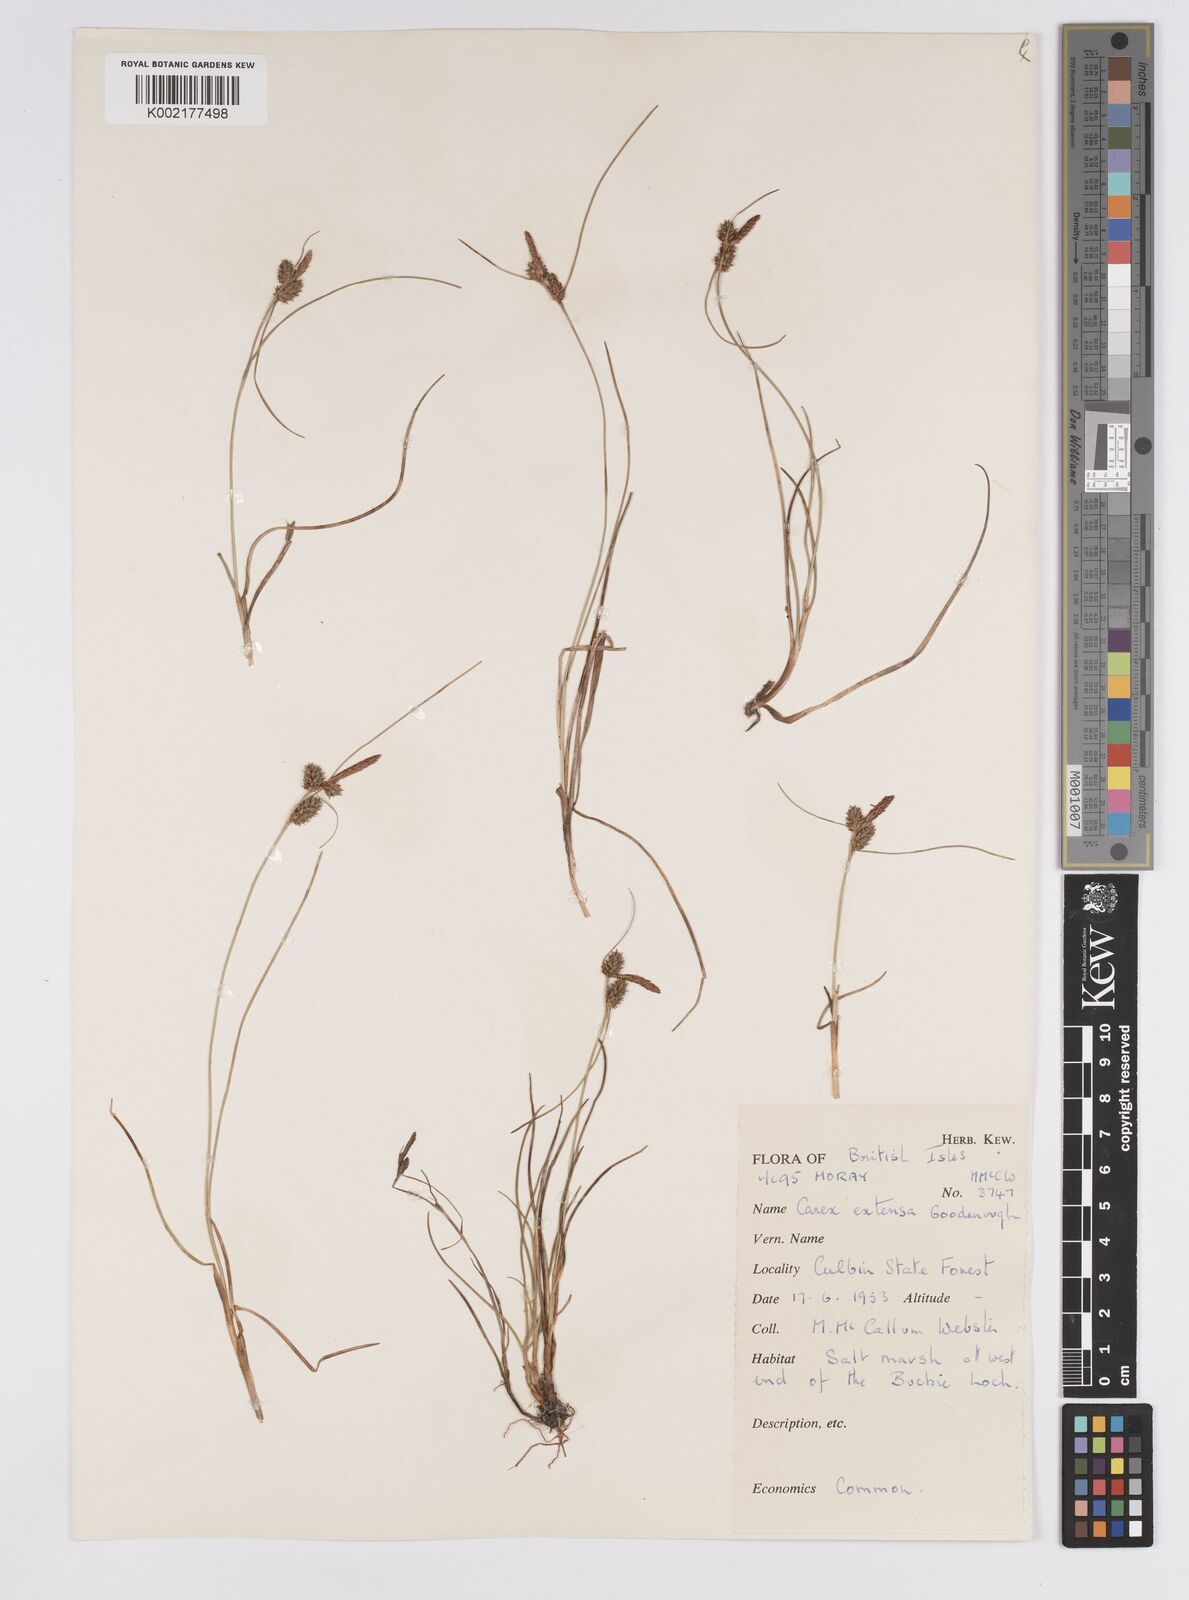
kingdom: Plantae
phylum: Tracheophyta
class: Liliopsida
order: Poales
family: Cyperaceae
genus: Carex
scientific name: Carex extensa
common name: Long-bracted sedge
